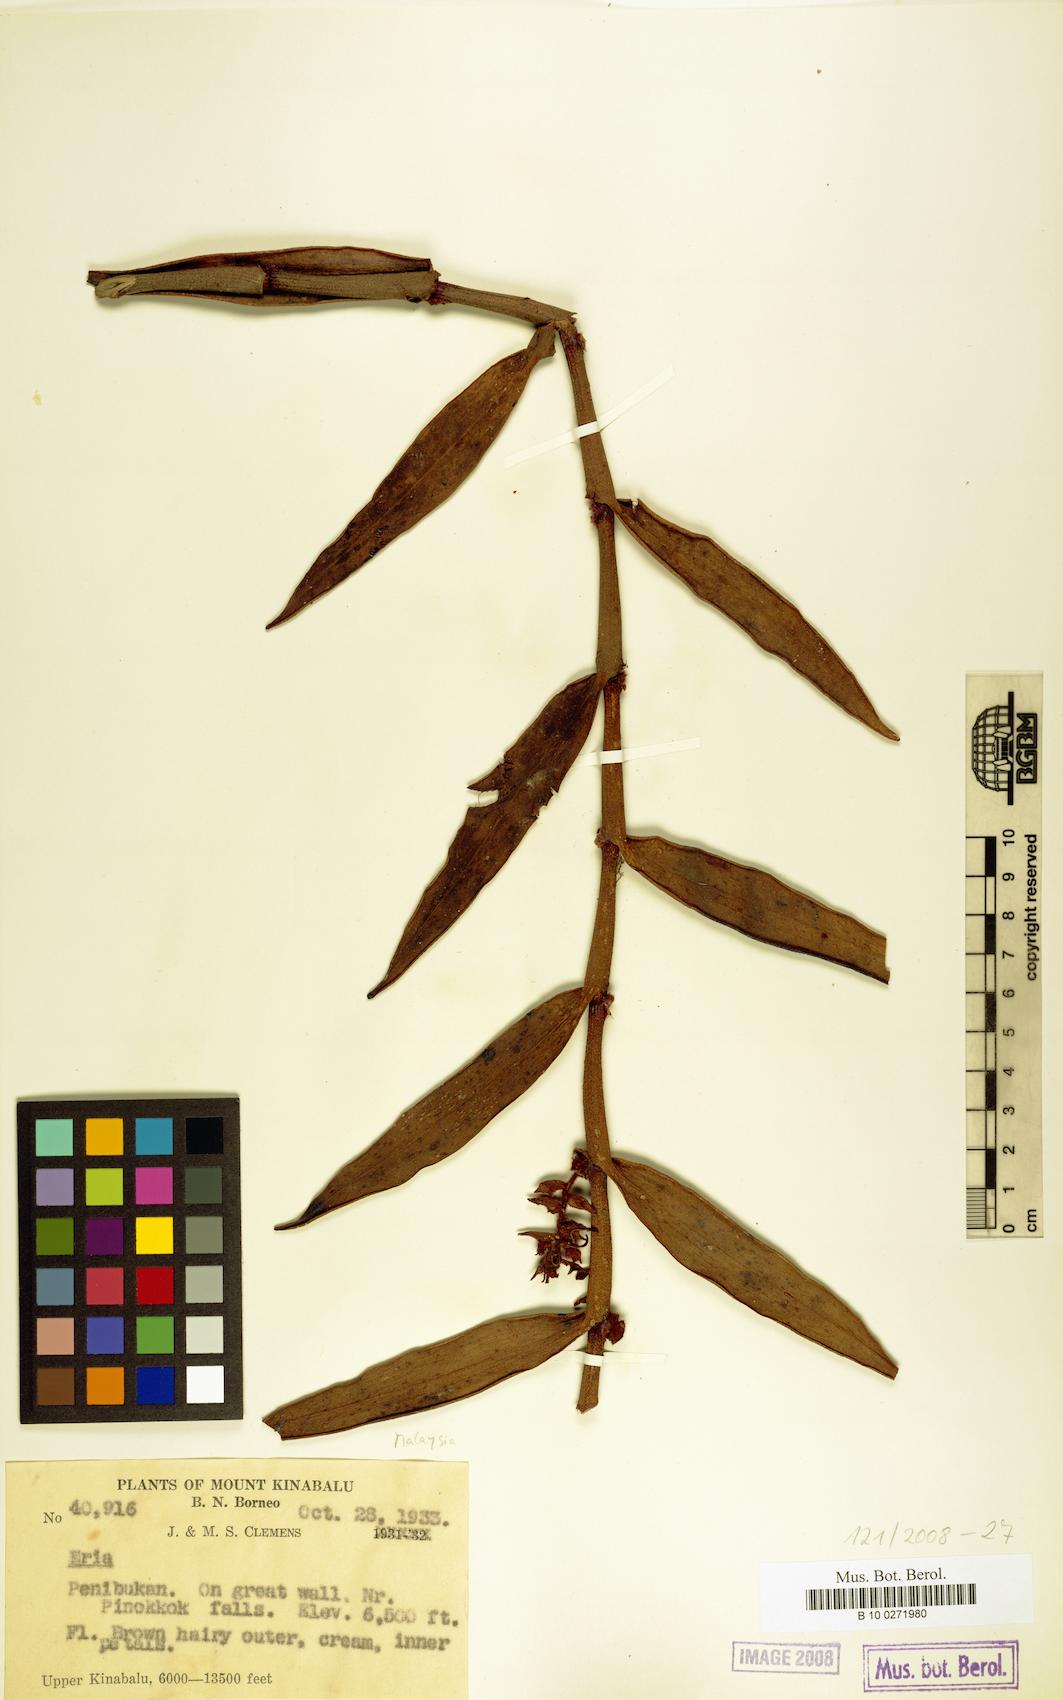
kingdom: Plantae
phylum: Tracheophyta
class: Liliopsida
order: Asparagales
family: Orchidaceae
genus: Eria
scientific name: Eria
